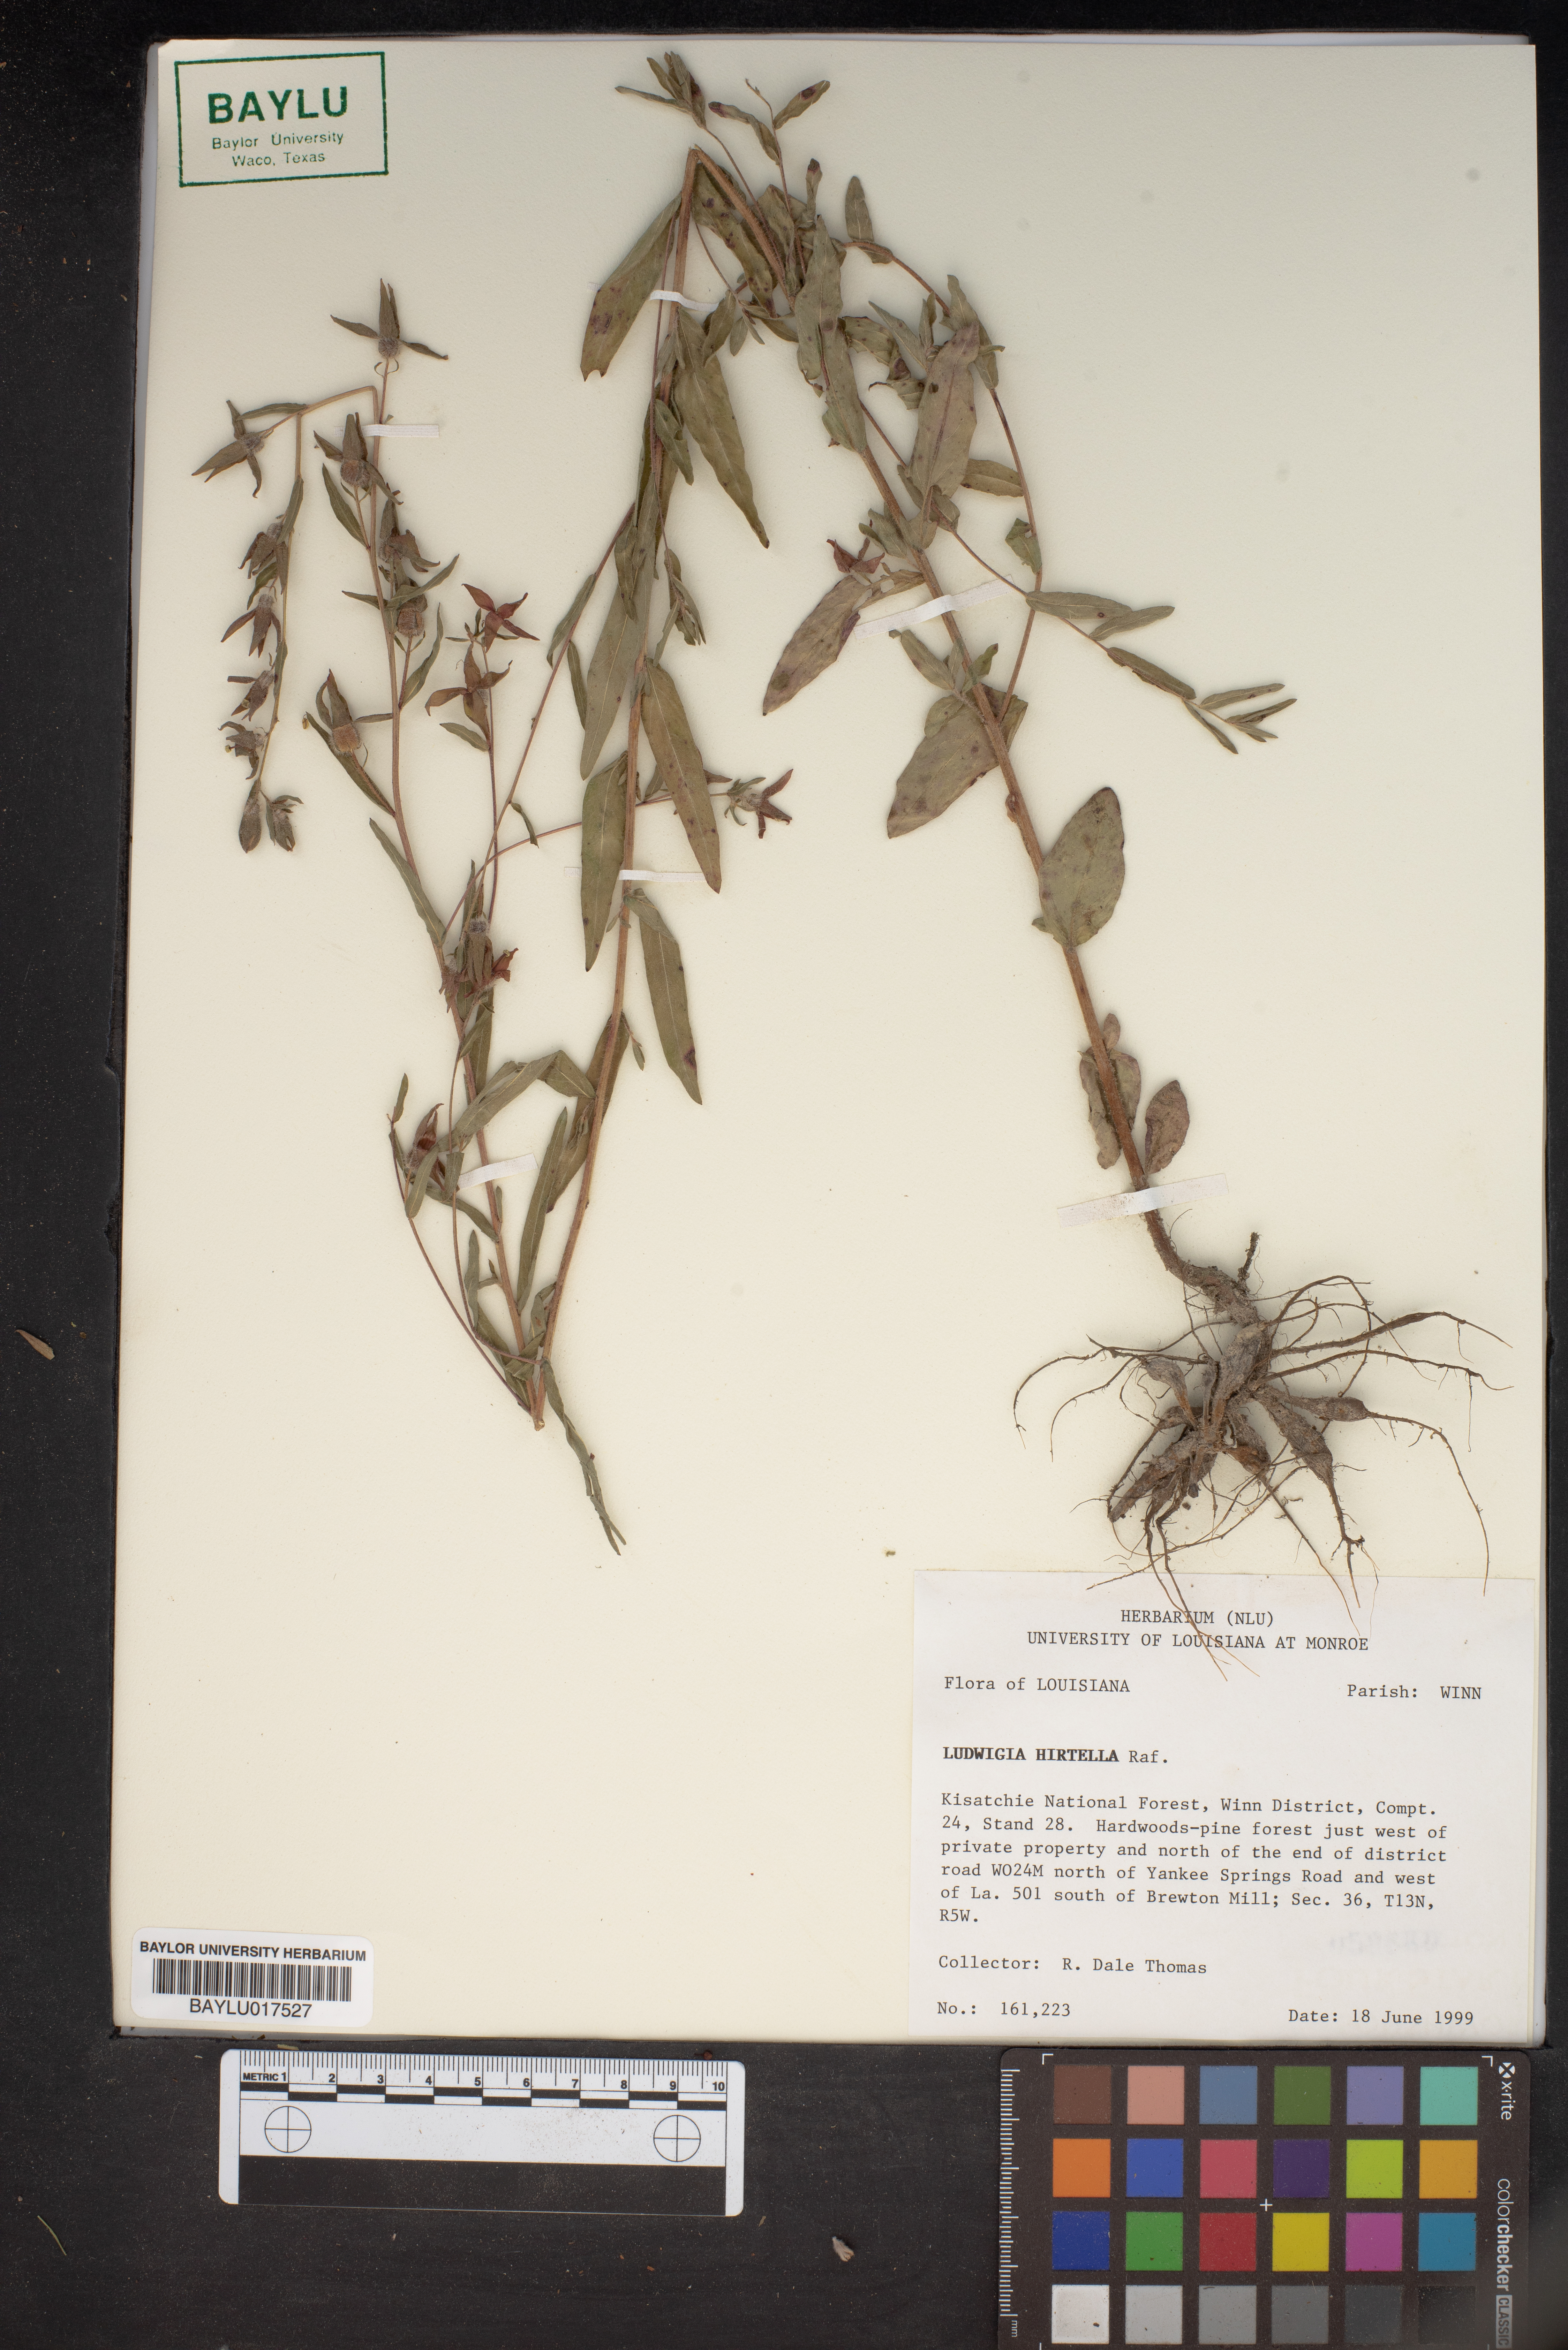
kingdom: Plantae
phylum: Tracheophyta
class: Magnoliopsida
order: Myrtales
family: Onagraceae
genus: Ludwigia
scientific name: Ludwigia hirtella
